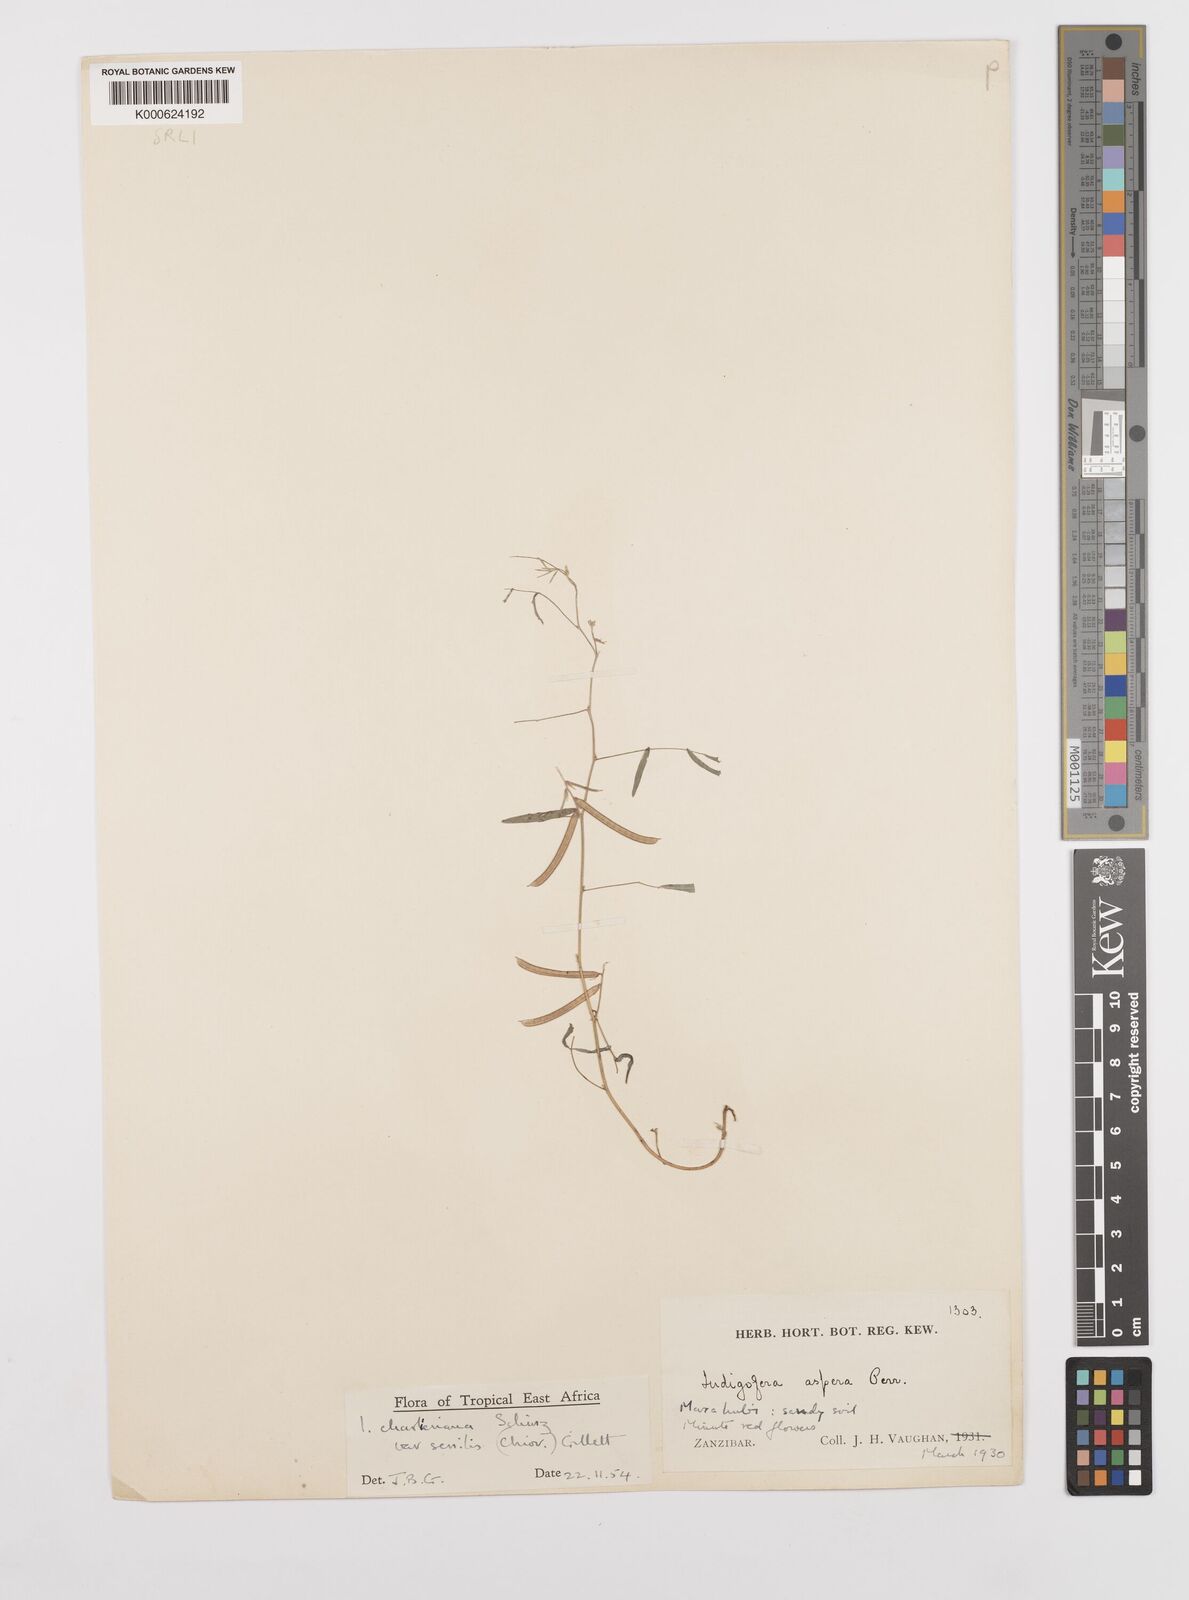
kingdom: Plantae
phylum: Tracheophyta
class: Magnoliopsida
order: Fabales
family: Fabaceae
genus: Indigofera
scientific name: Indigofera charlieriana
